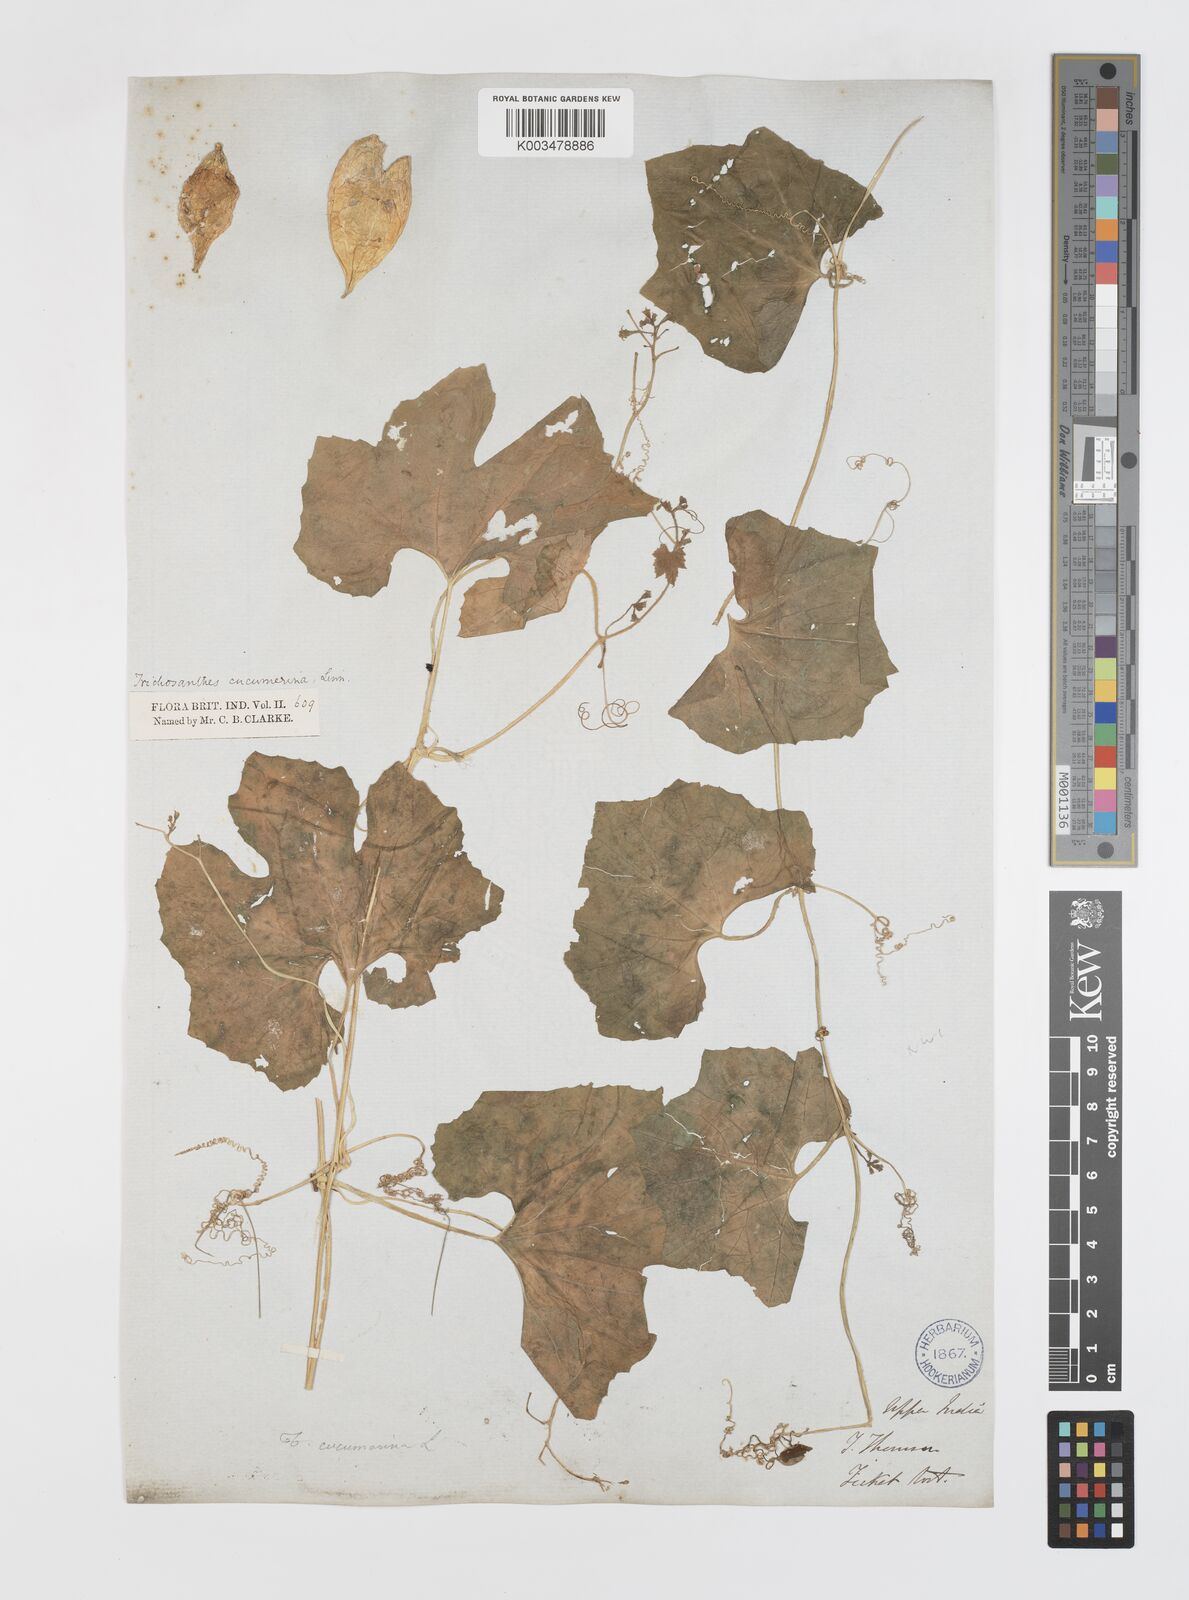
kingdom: Plantae
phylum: Tracheophyta
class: Magnoliopsida
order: Cucurbitales
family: Cucurbitaceae
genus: Trichosanthes
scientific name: Trichosanthes cucumerina
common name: Snakegourd
